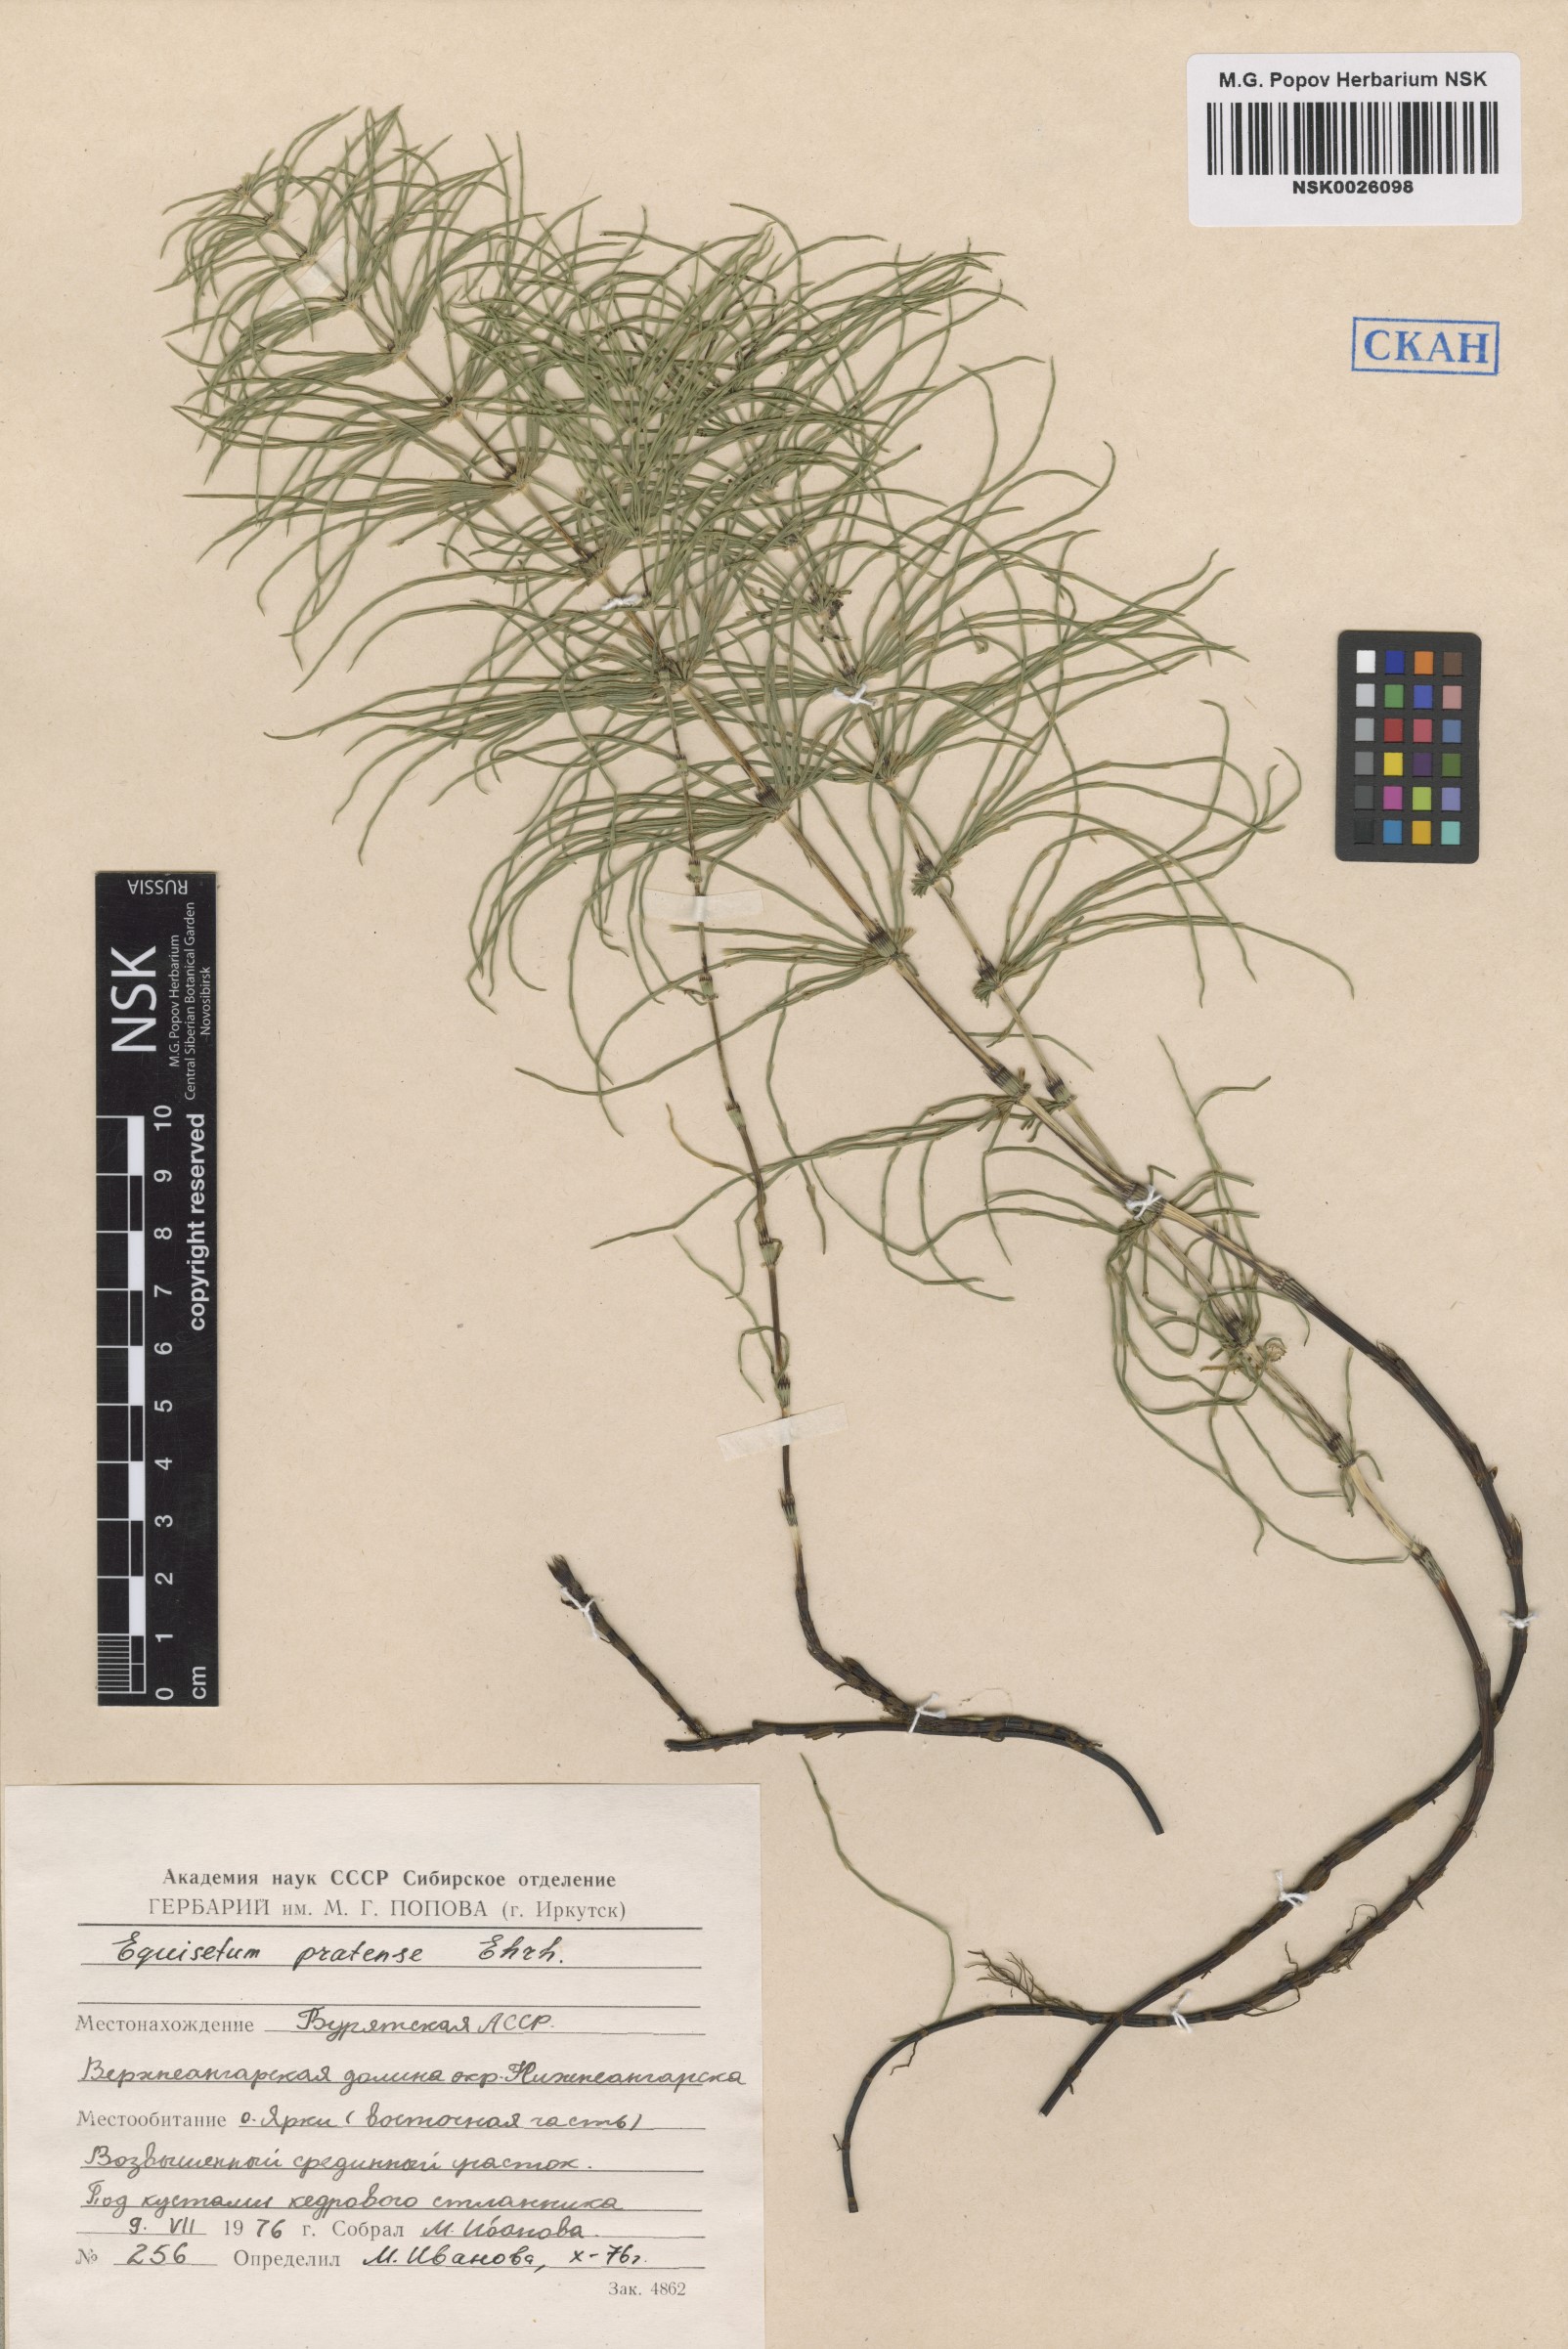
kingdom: Plantae
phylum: Tracheophyta
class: Polypodiopsida
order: Equisetales
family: Equisetaceae
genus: Equisetum
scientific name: Equisetum pratense
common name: Meadow horsetail
